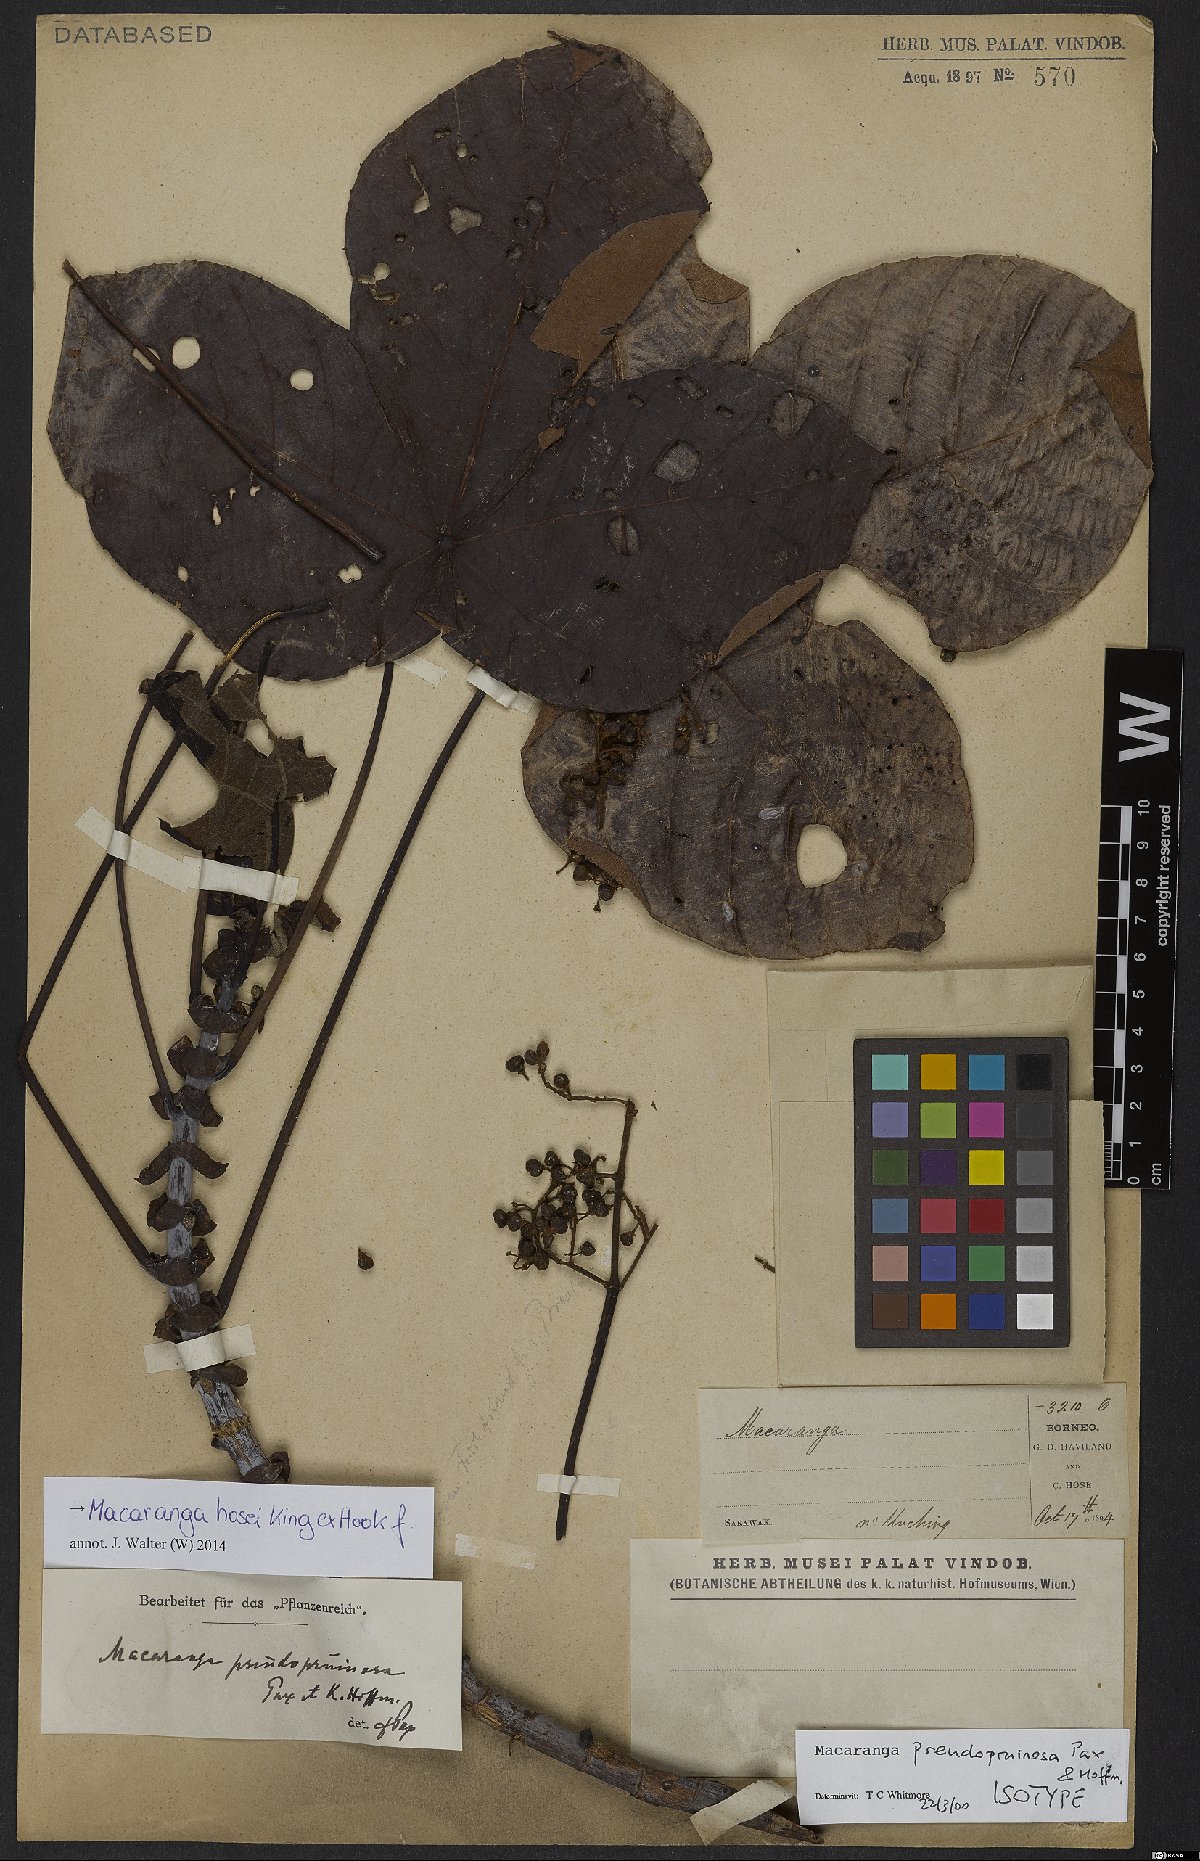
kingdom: Plantae
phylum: Tracheophyta
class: Magnoliopsida
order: Malpighiales
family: Euphorbiaceae
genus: Macaranga
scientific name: Macaranga hosei
